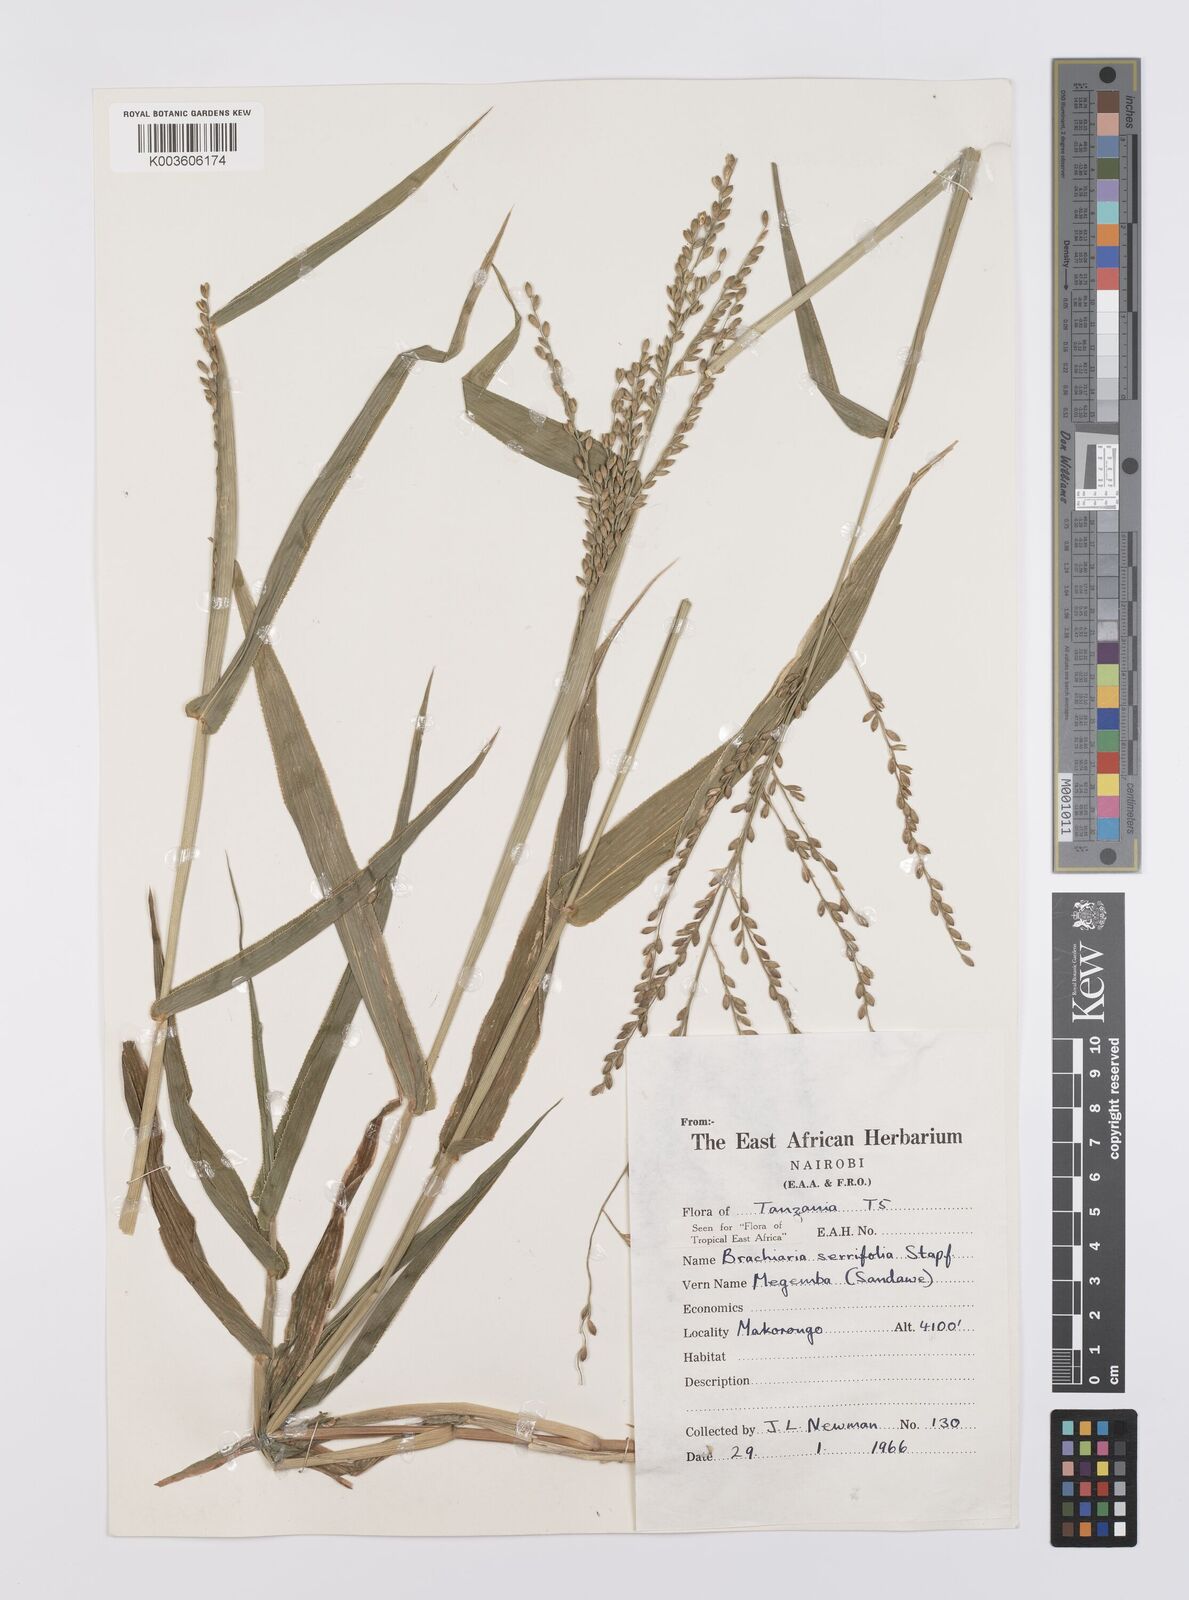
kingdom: Plantae
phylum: Tracheophyta
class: Liliopsida
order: Poales
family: Poaceae
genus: Urochloa
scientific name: Urochloa serrifolia
